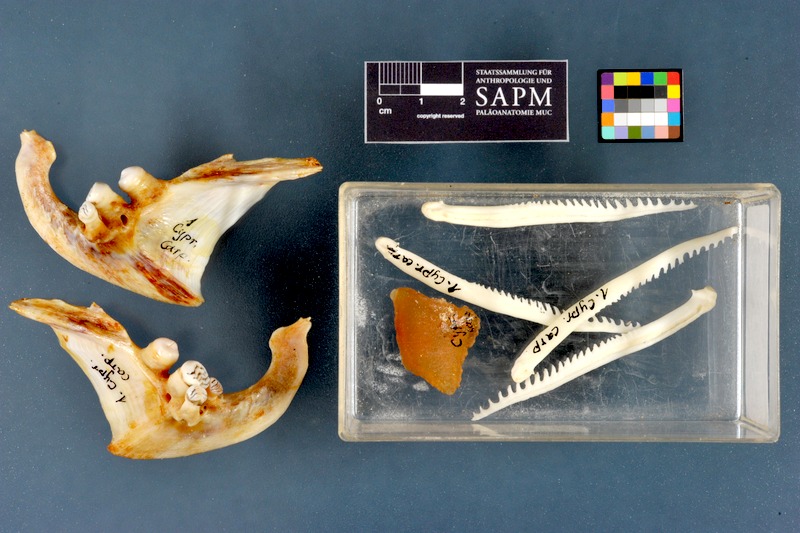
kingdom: Animalia
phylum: Chordata
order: Cypriniformes
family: Cyprinidae
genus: Cyprinus
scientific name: Cyprinus carpio
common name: Common carp
